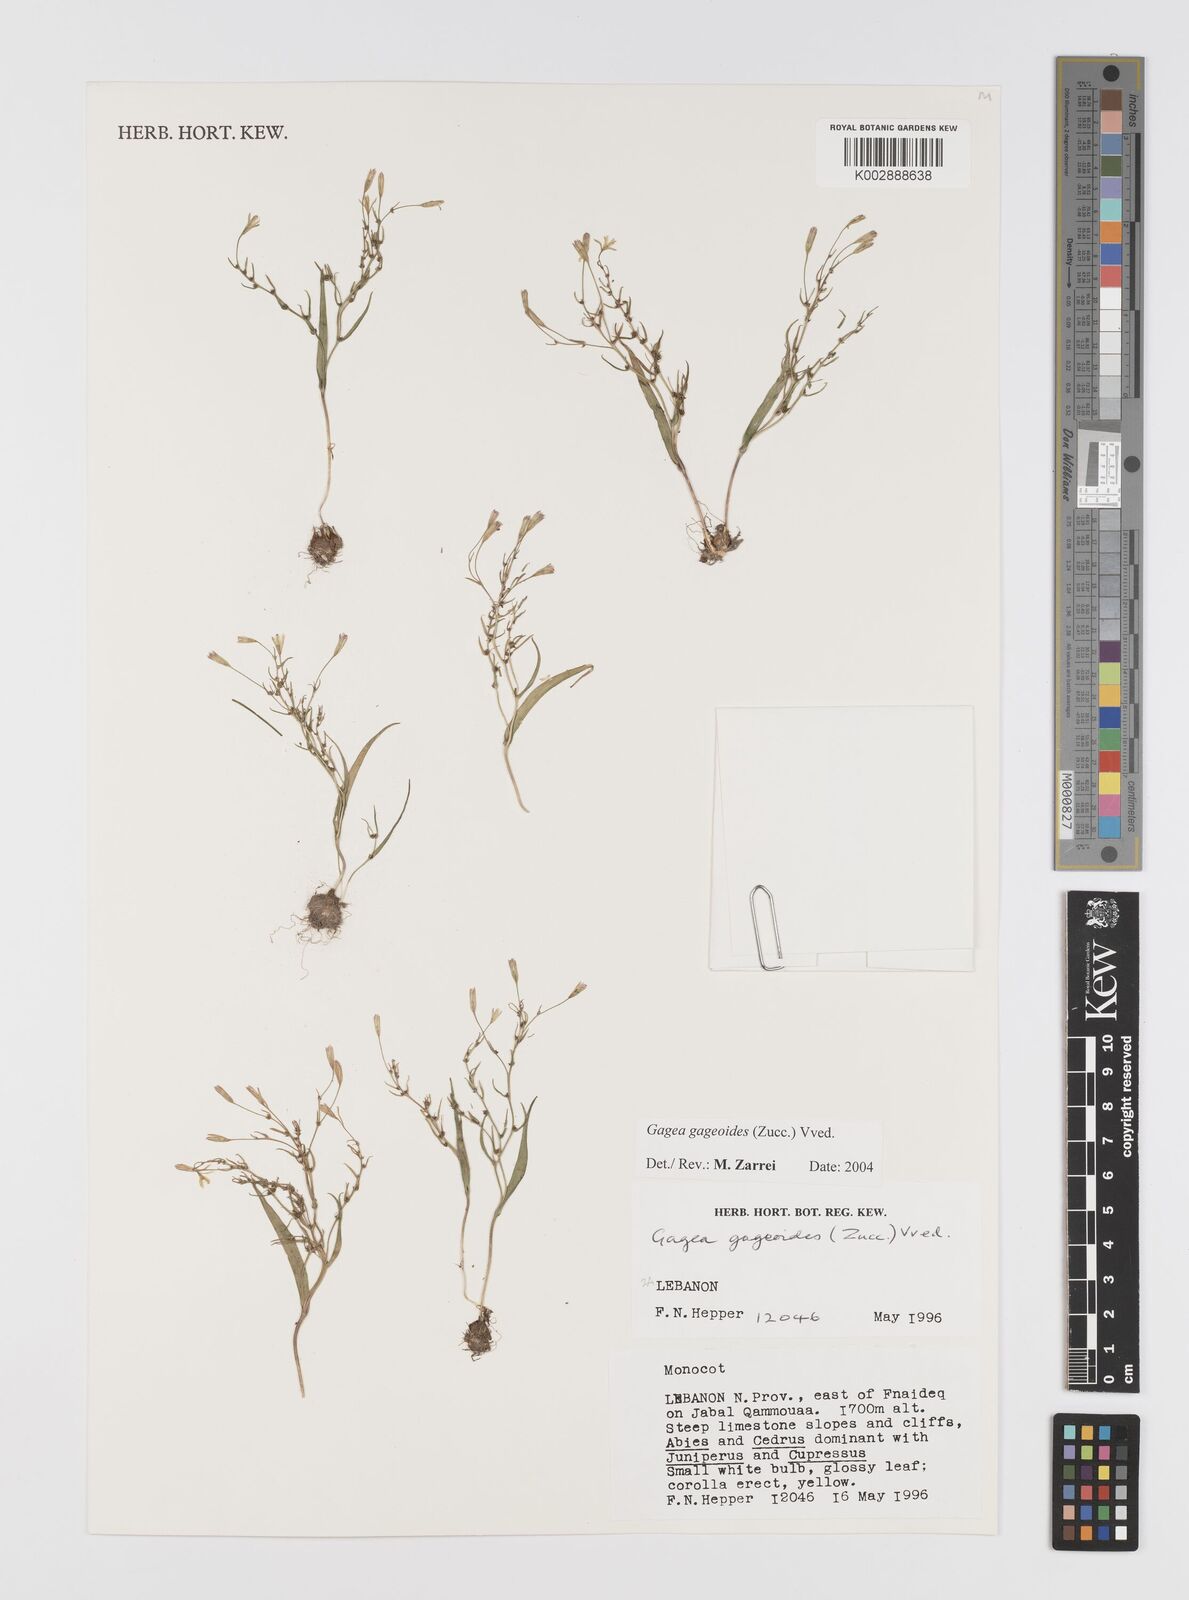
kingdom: Plantae
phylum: Tracheophyta
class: Liliopsida
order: Liliales
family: Liliaceae
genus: Gagea
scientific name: Gagea gageoides
